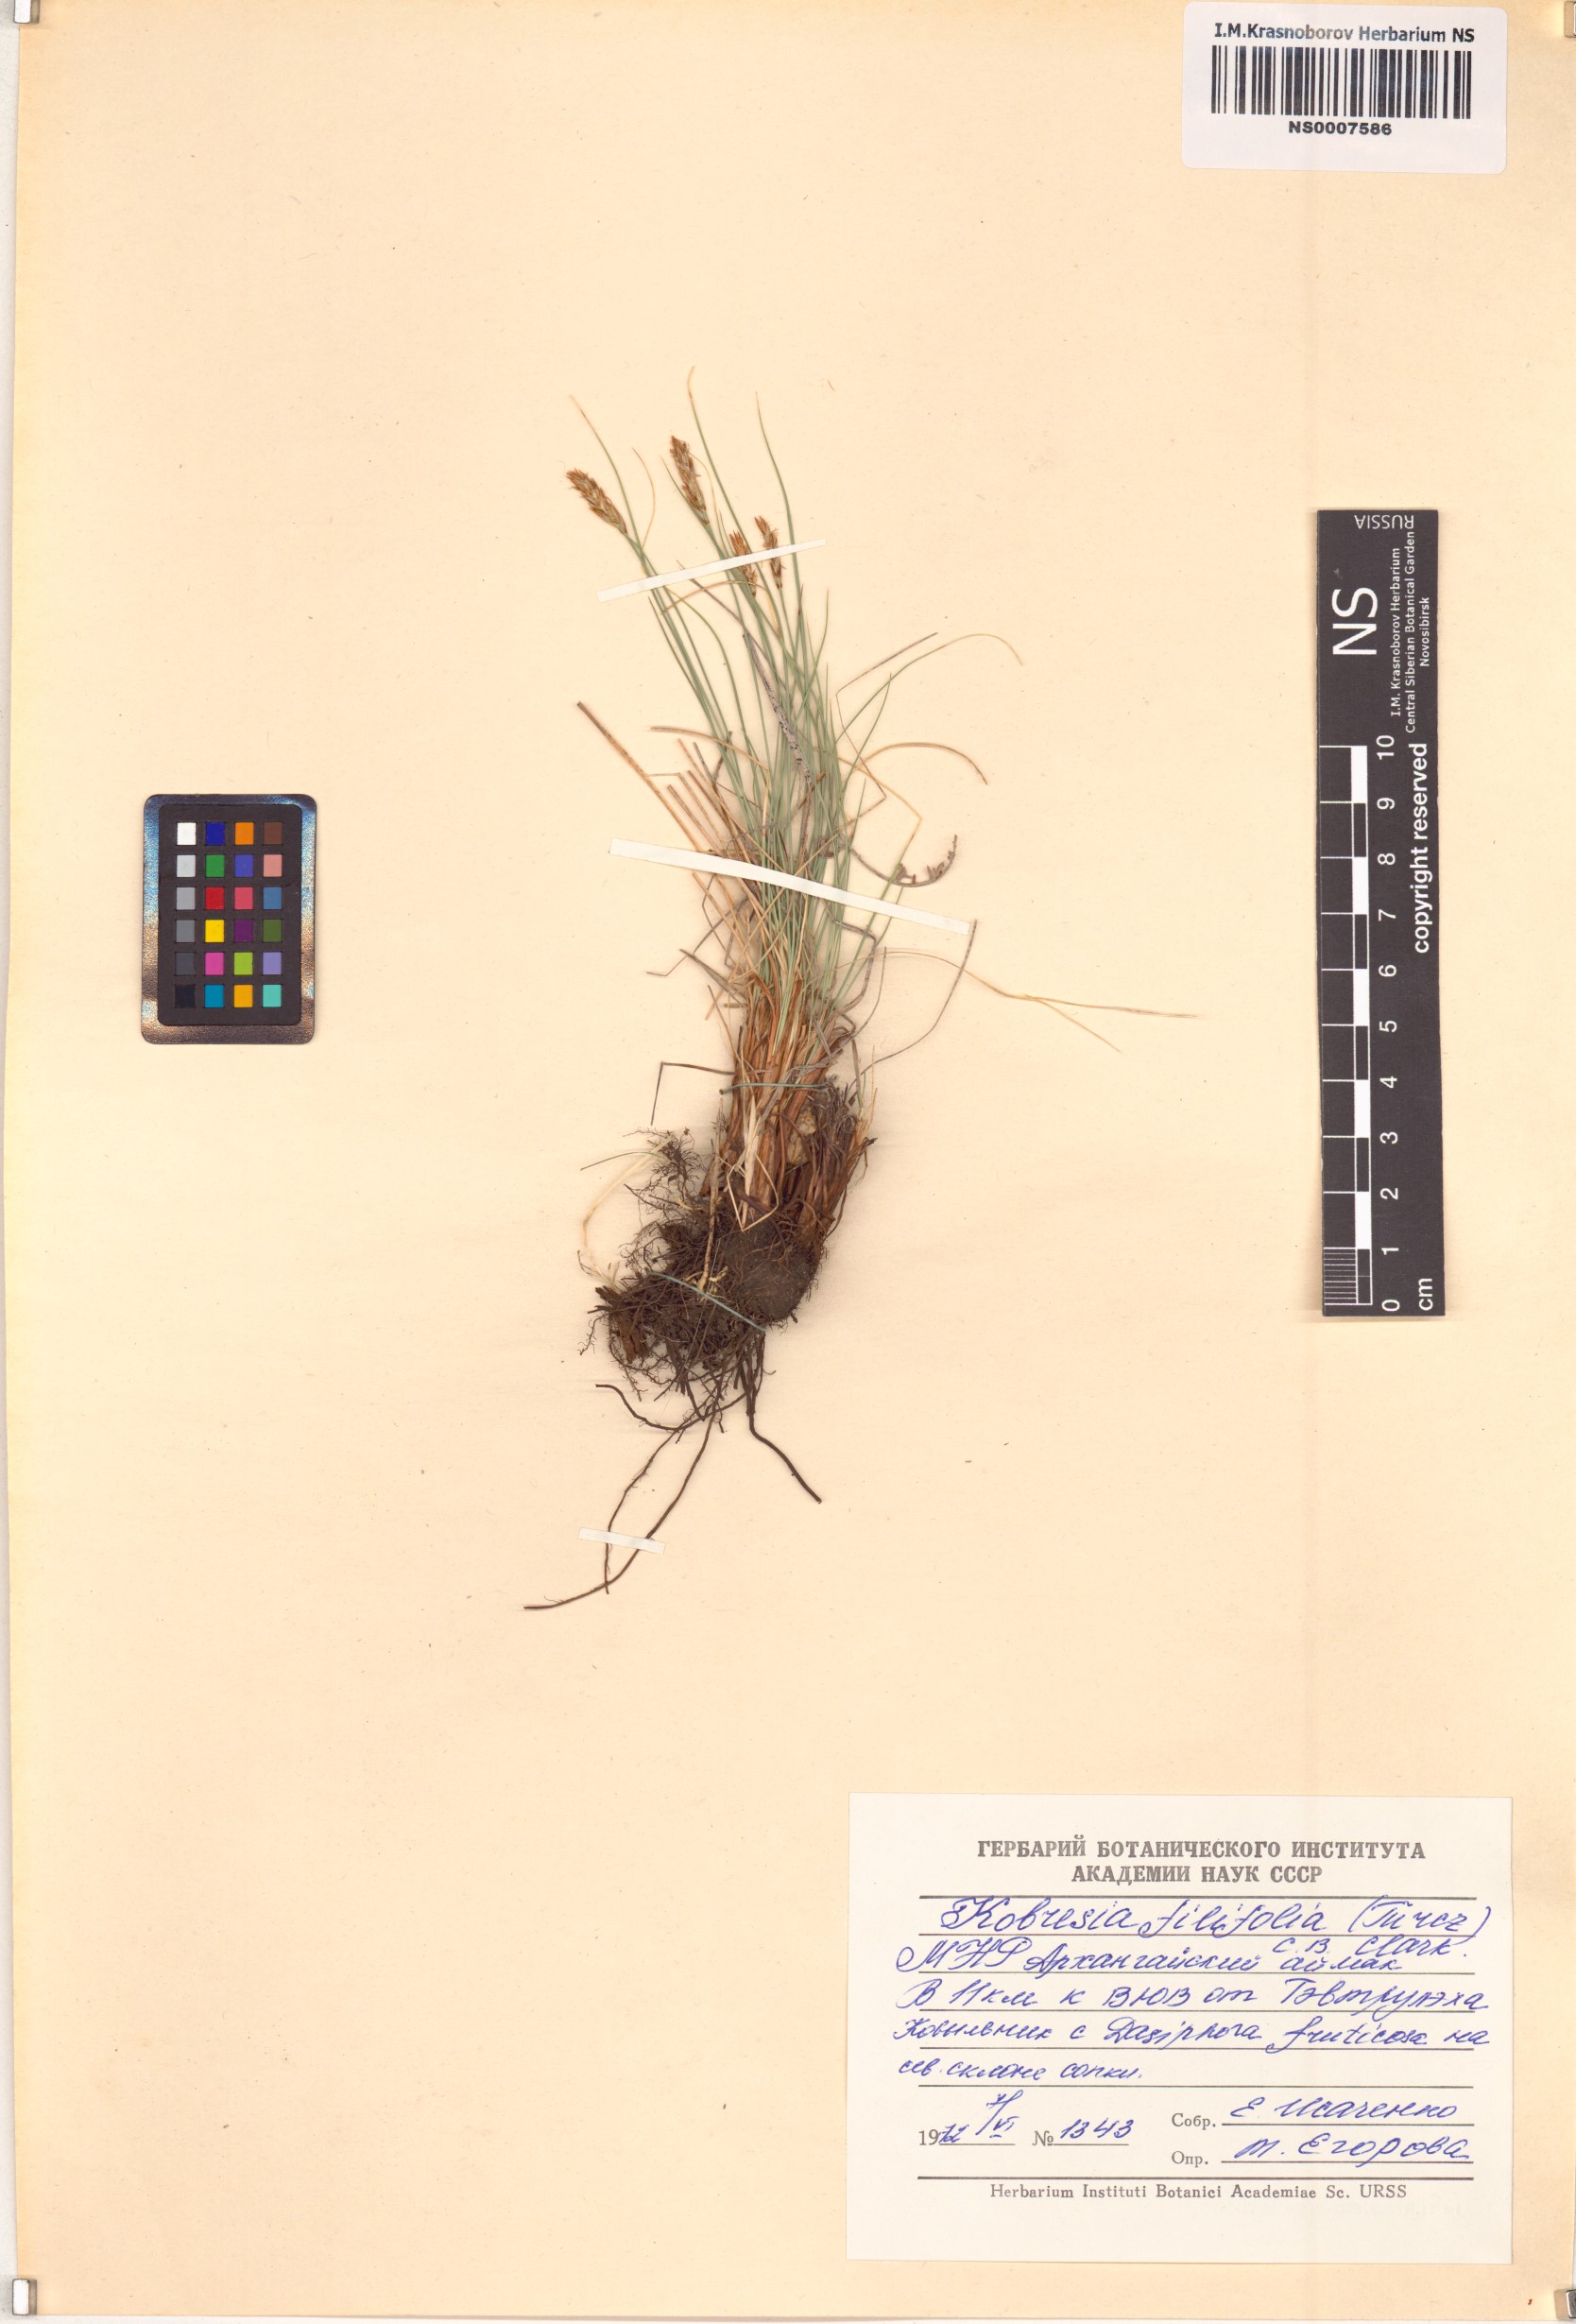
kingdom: Plantae
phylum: Tracheophyta
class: Liliopsida
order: Poales
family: Cyperaceae
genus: Carex
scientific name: Carex macroprophylla
